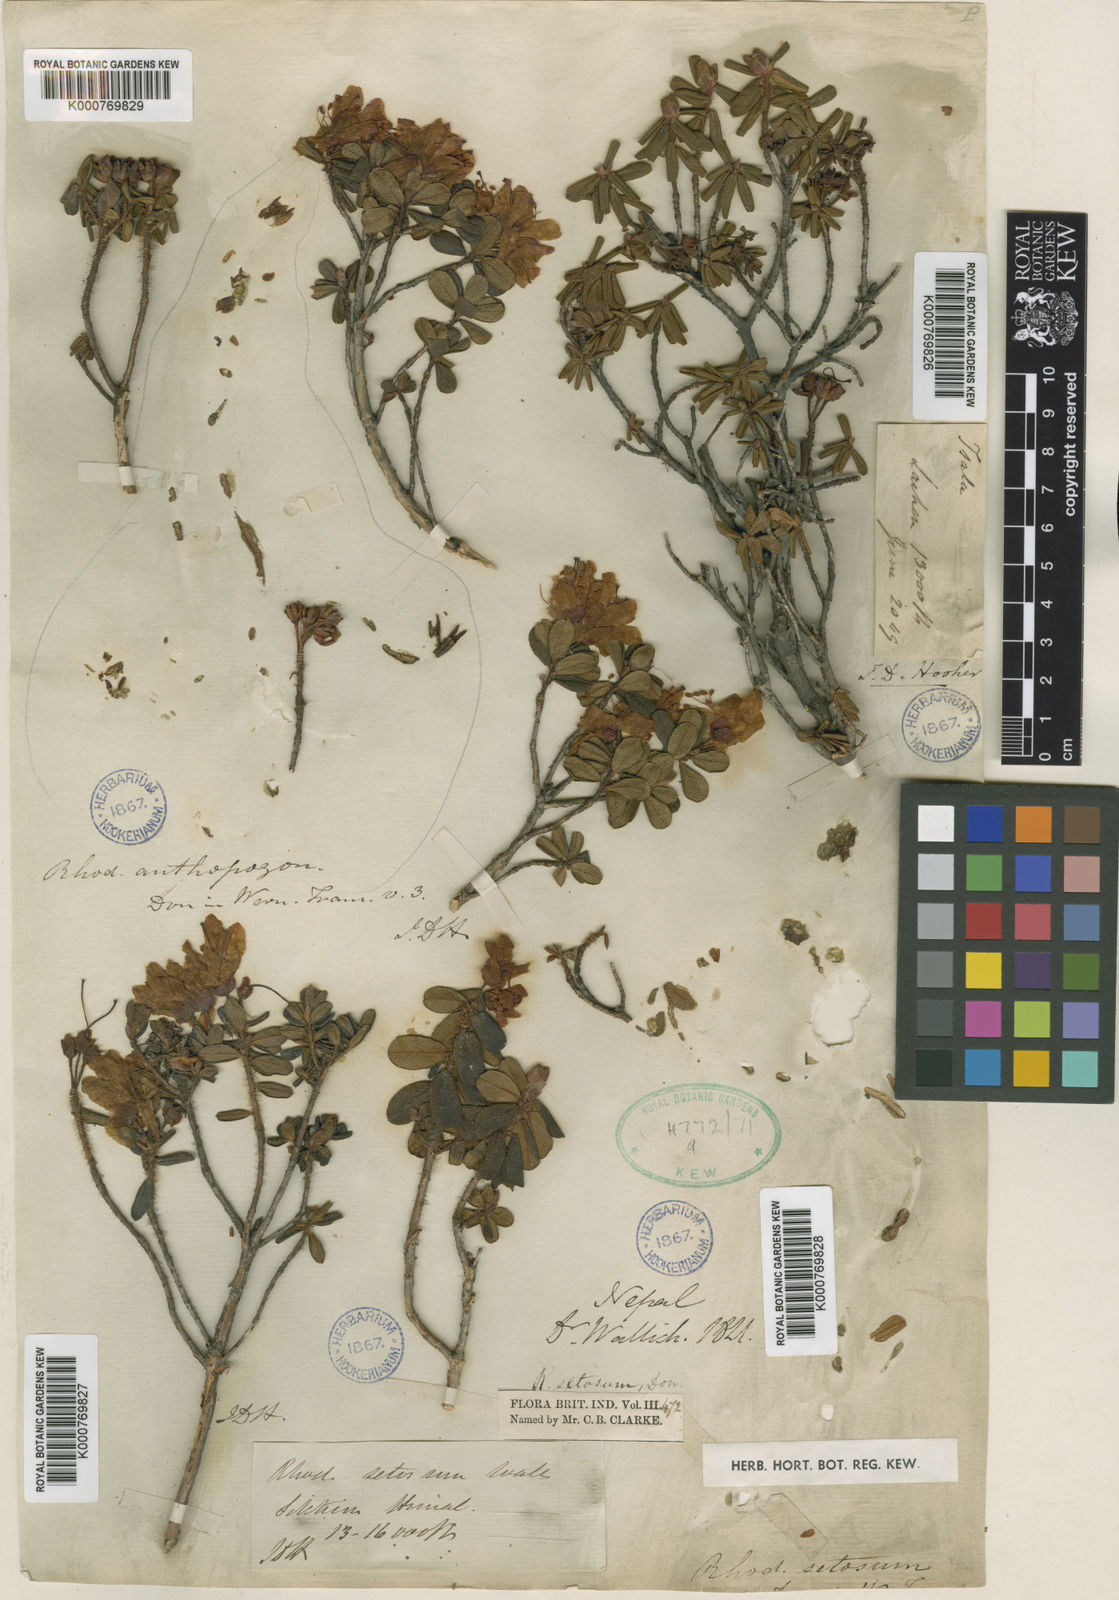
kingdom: Plantae
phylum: Tracheophyta
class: Magnoliopsida
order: Ericales
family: Ericaceae
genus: Rhododendron
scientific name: Rhododendron setosum
